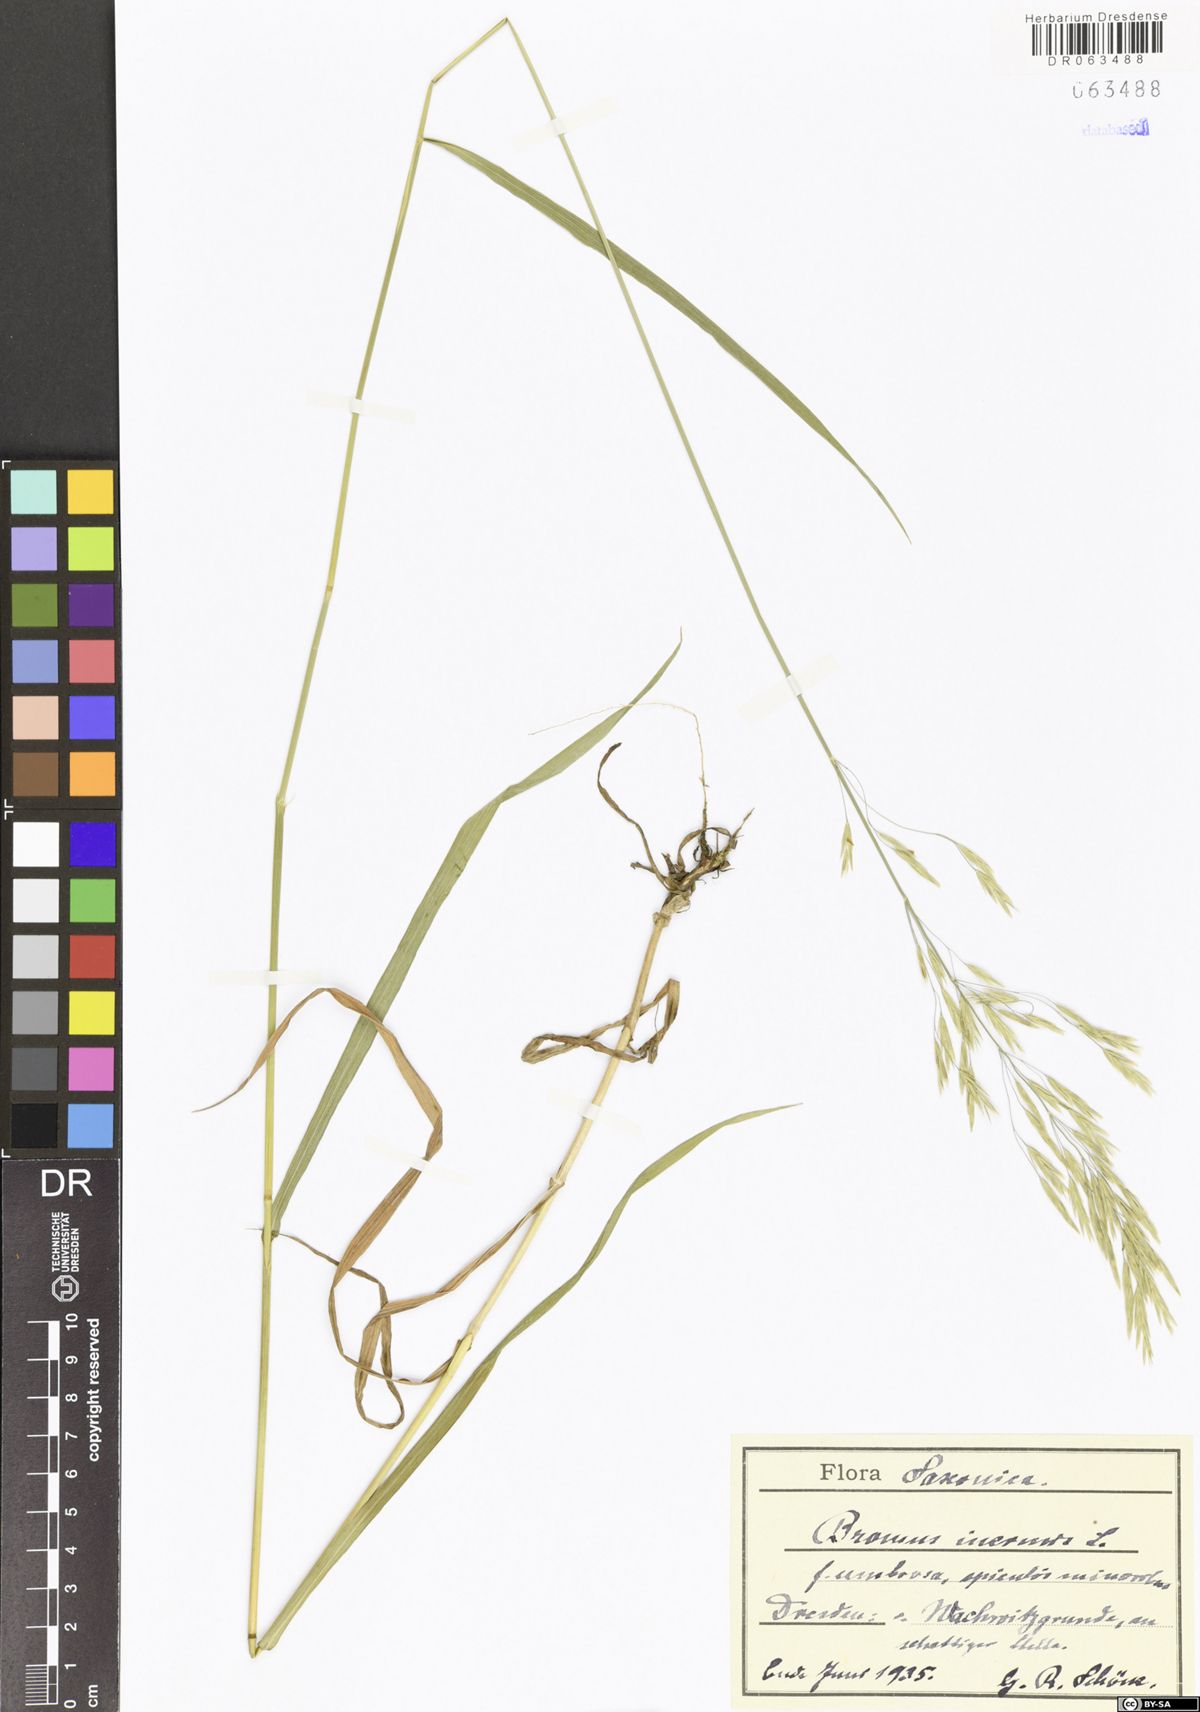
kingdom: Plantae
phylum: Tracheophyta
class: Liliopsida
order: Poales
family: Poaceae
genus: Bromus
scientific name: Bromus inermis
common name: Smooth brome
